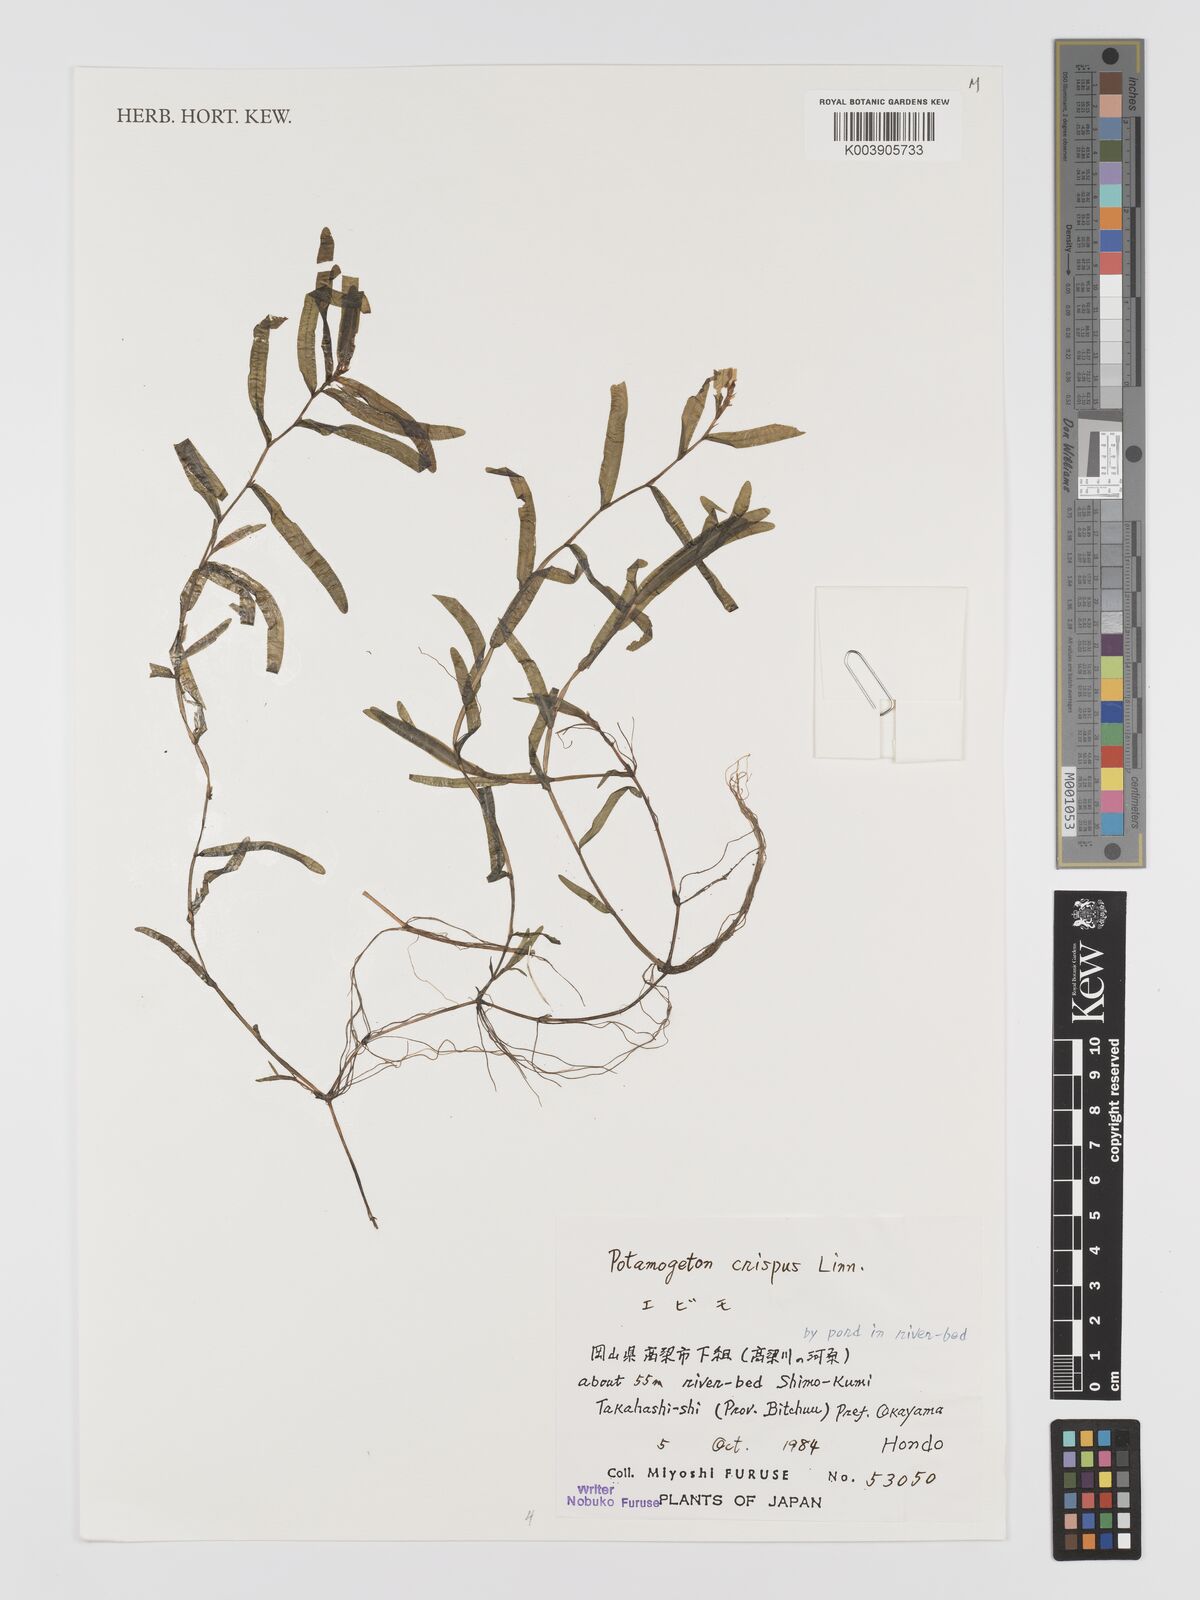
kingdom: Plantae
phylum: Tracheophyta
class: Liliopsida
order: Alismatales
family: Potamogetonaceae
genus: Potamogeton
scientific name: Potamogeton crispus
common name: Curled pondweed
